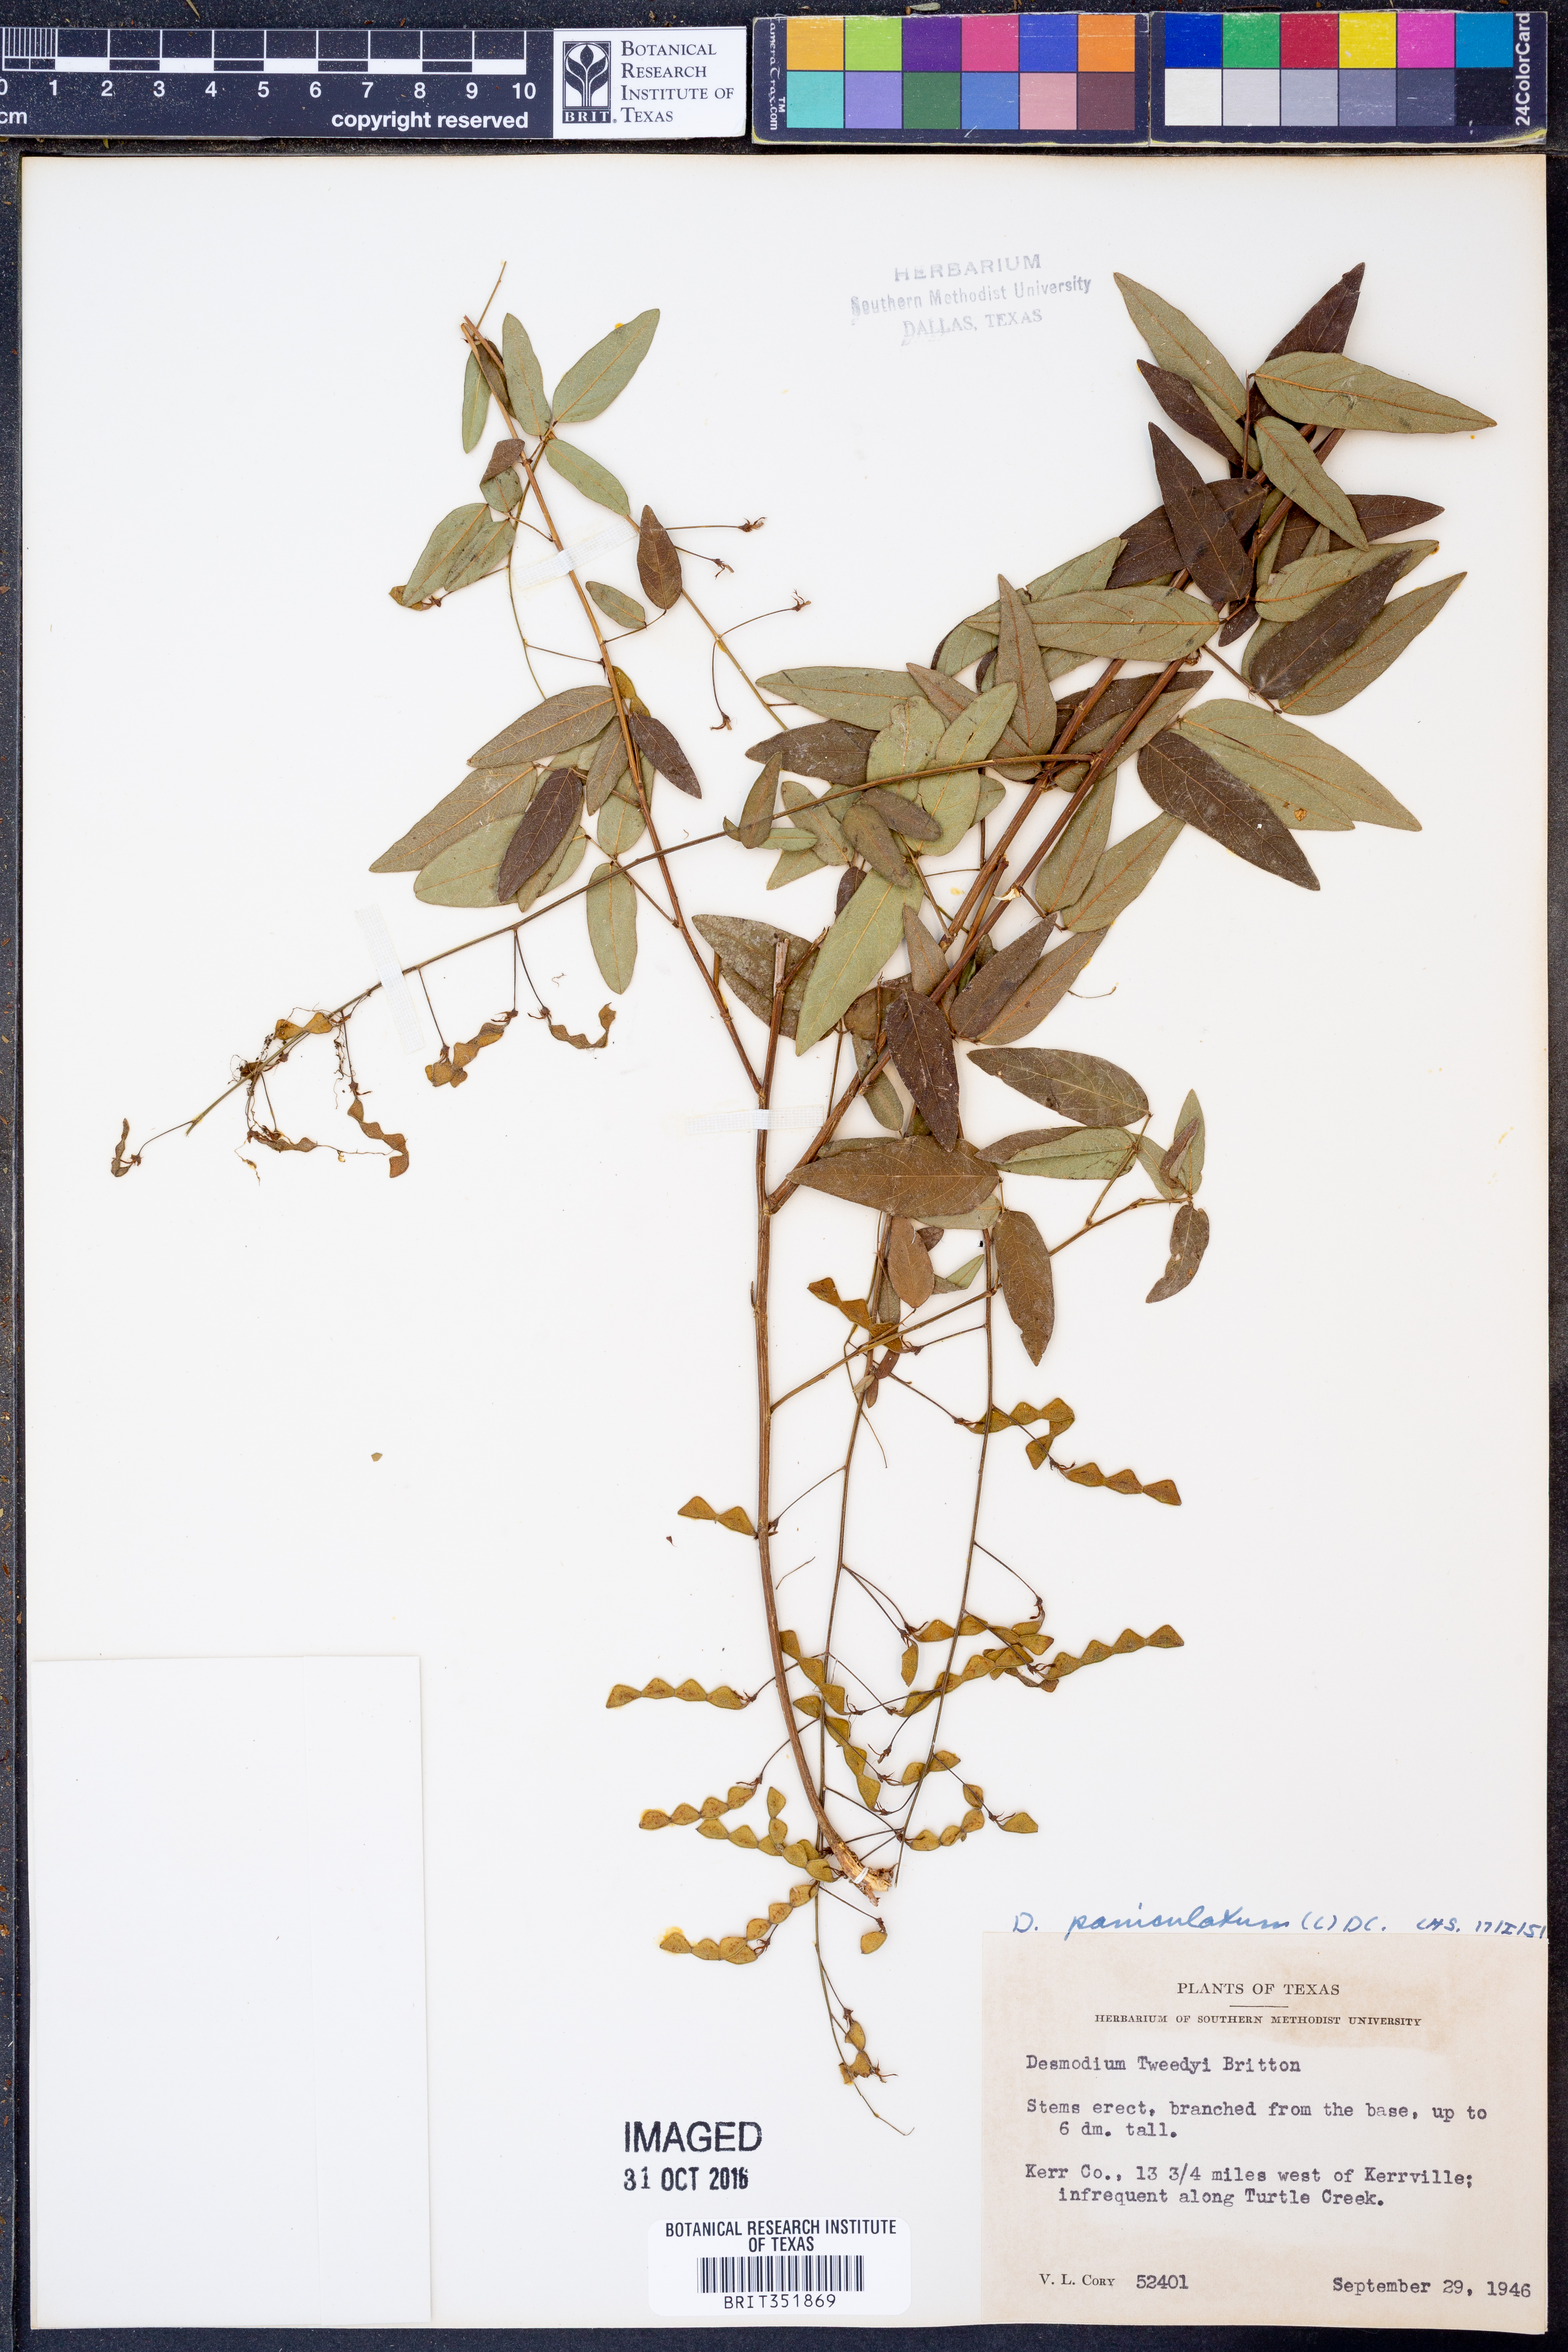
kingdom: Plantae
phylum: Tracheophyta
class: Magnoliopsida
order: Fabales
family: Fabaceae
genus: Desmodium
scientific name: Desmodium paniculatum
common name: Panicled tick-clover
